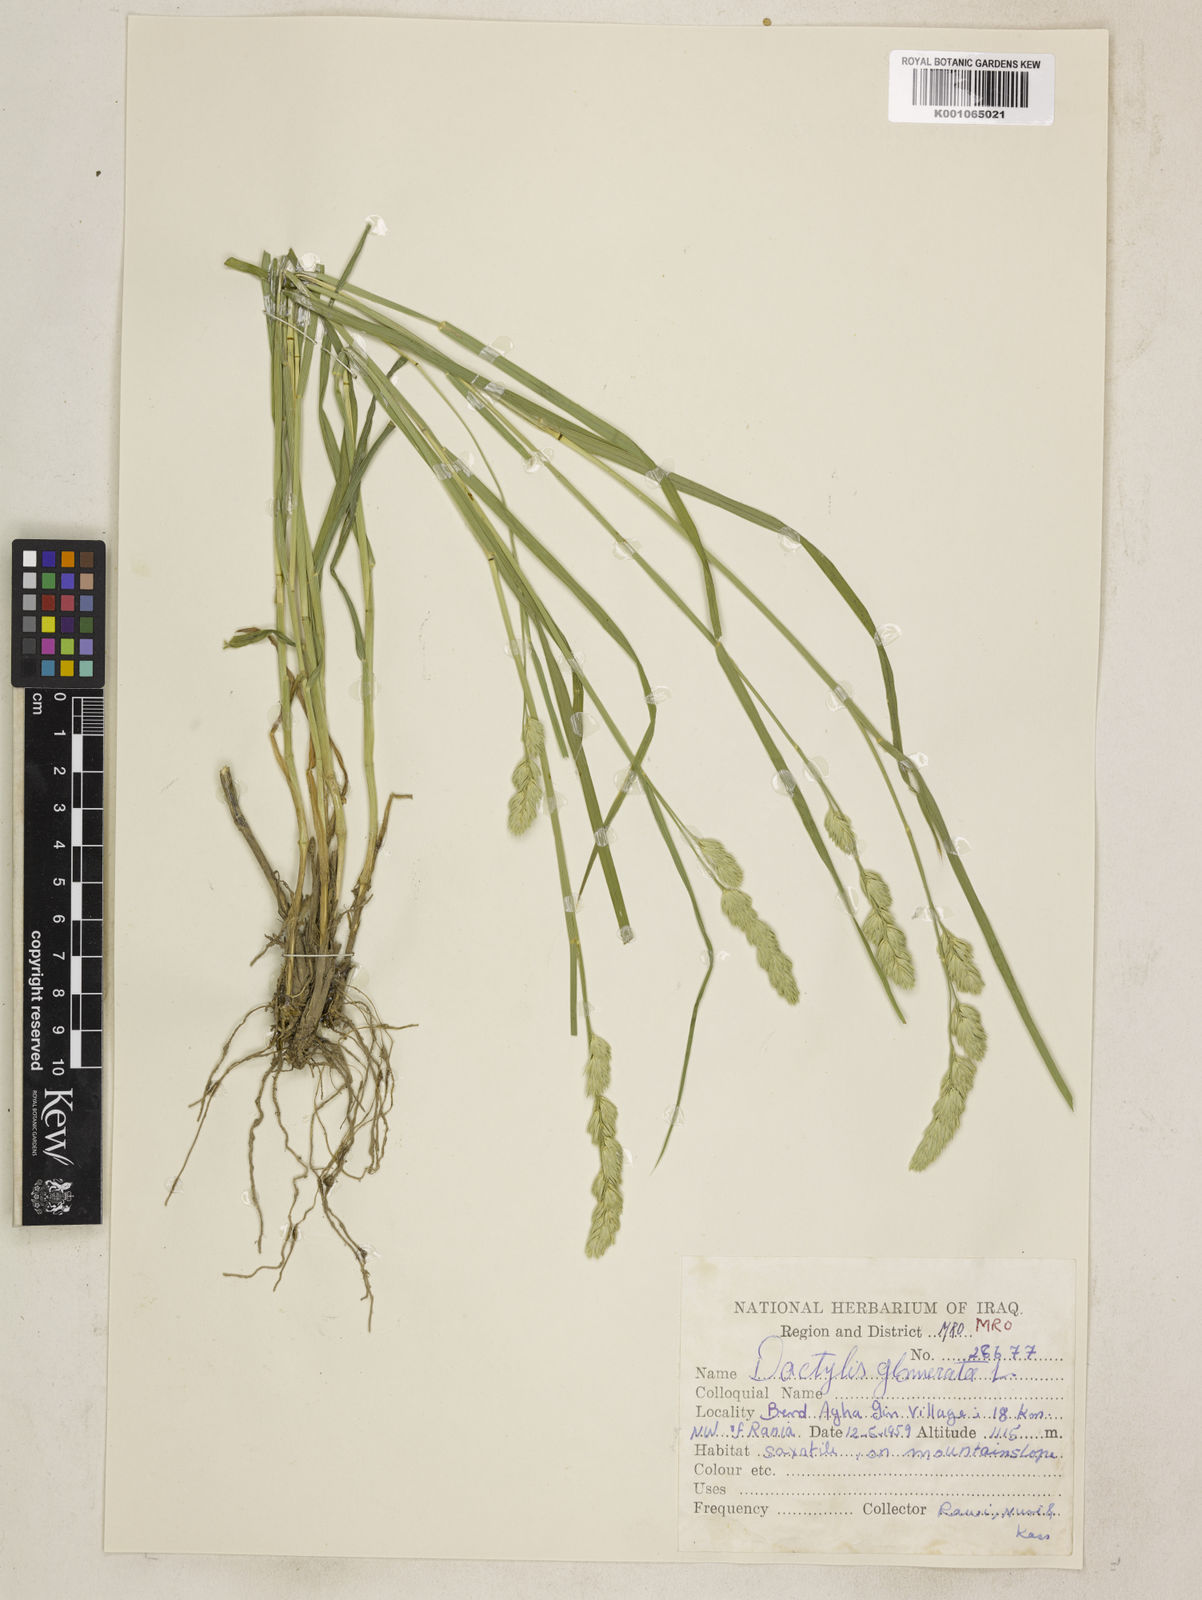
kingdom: Plantae
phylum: Tracheophyta
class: Liliopsida
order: Poales
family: Poaceae
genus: Dactylis
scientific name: Dactylis glomerata
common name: Orchardgrass
